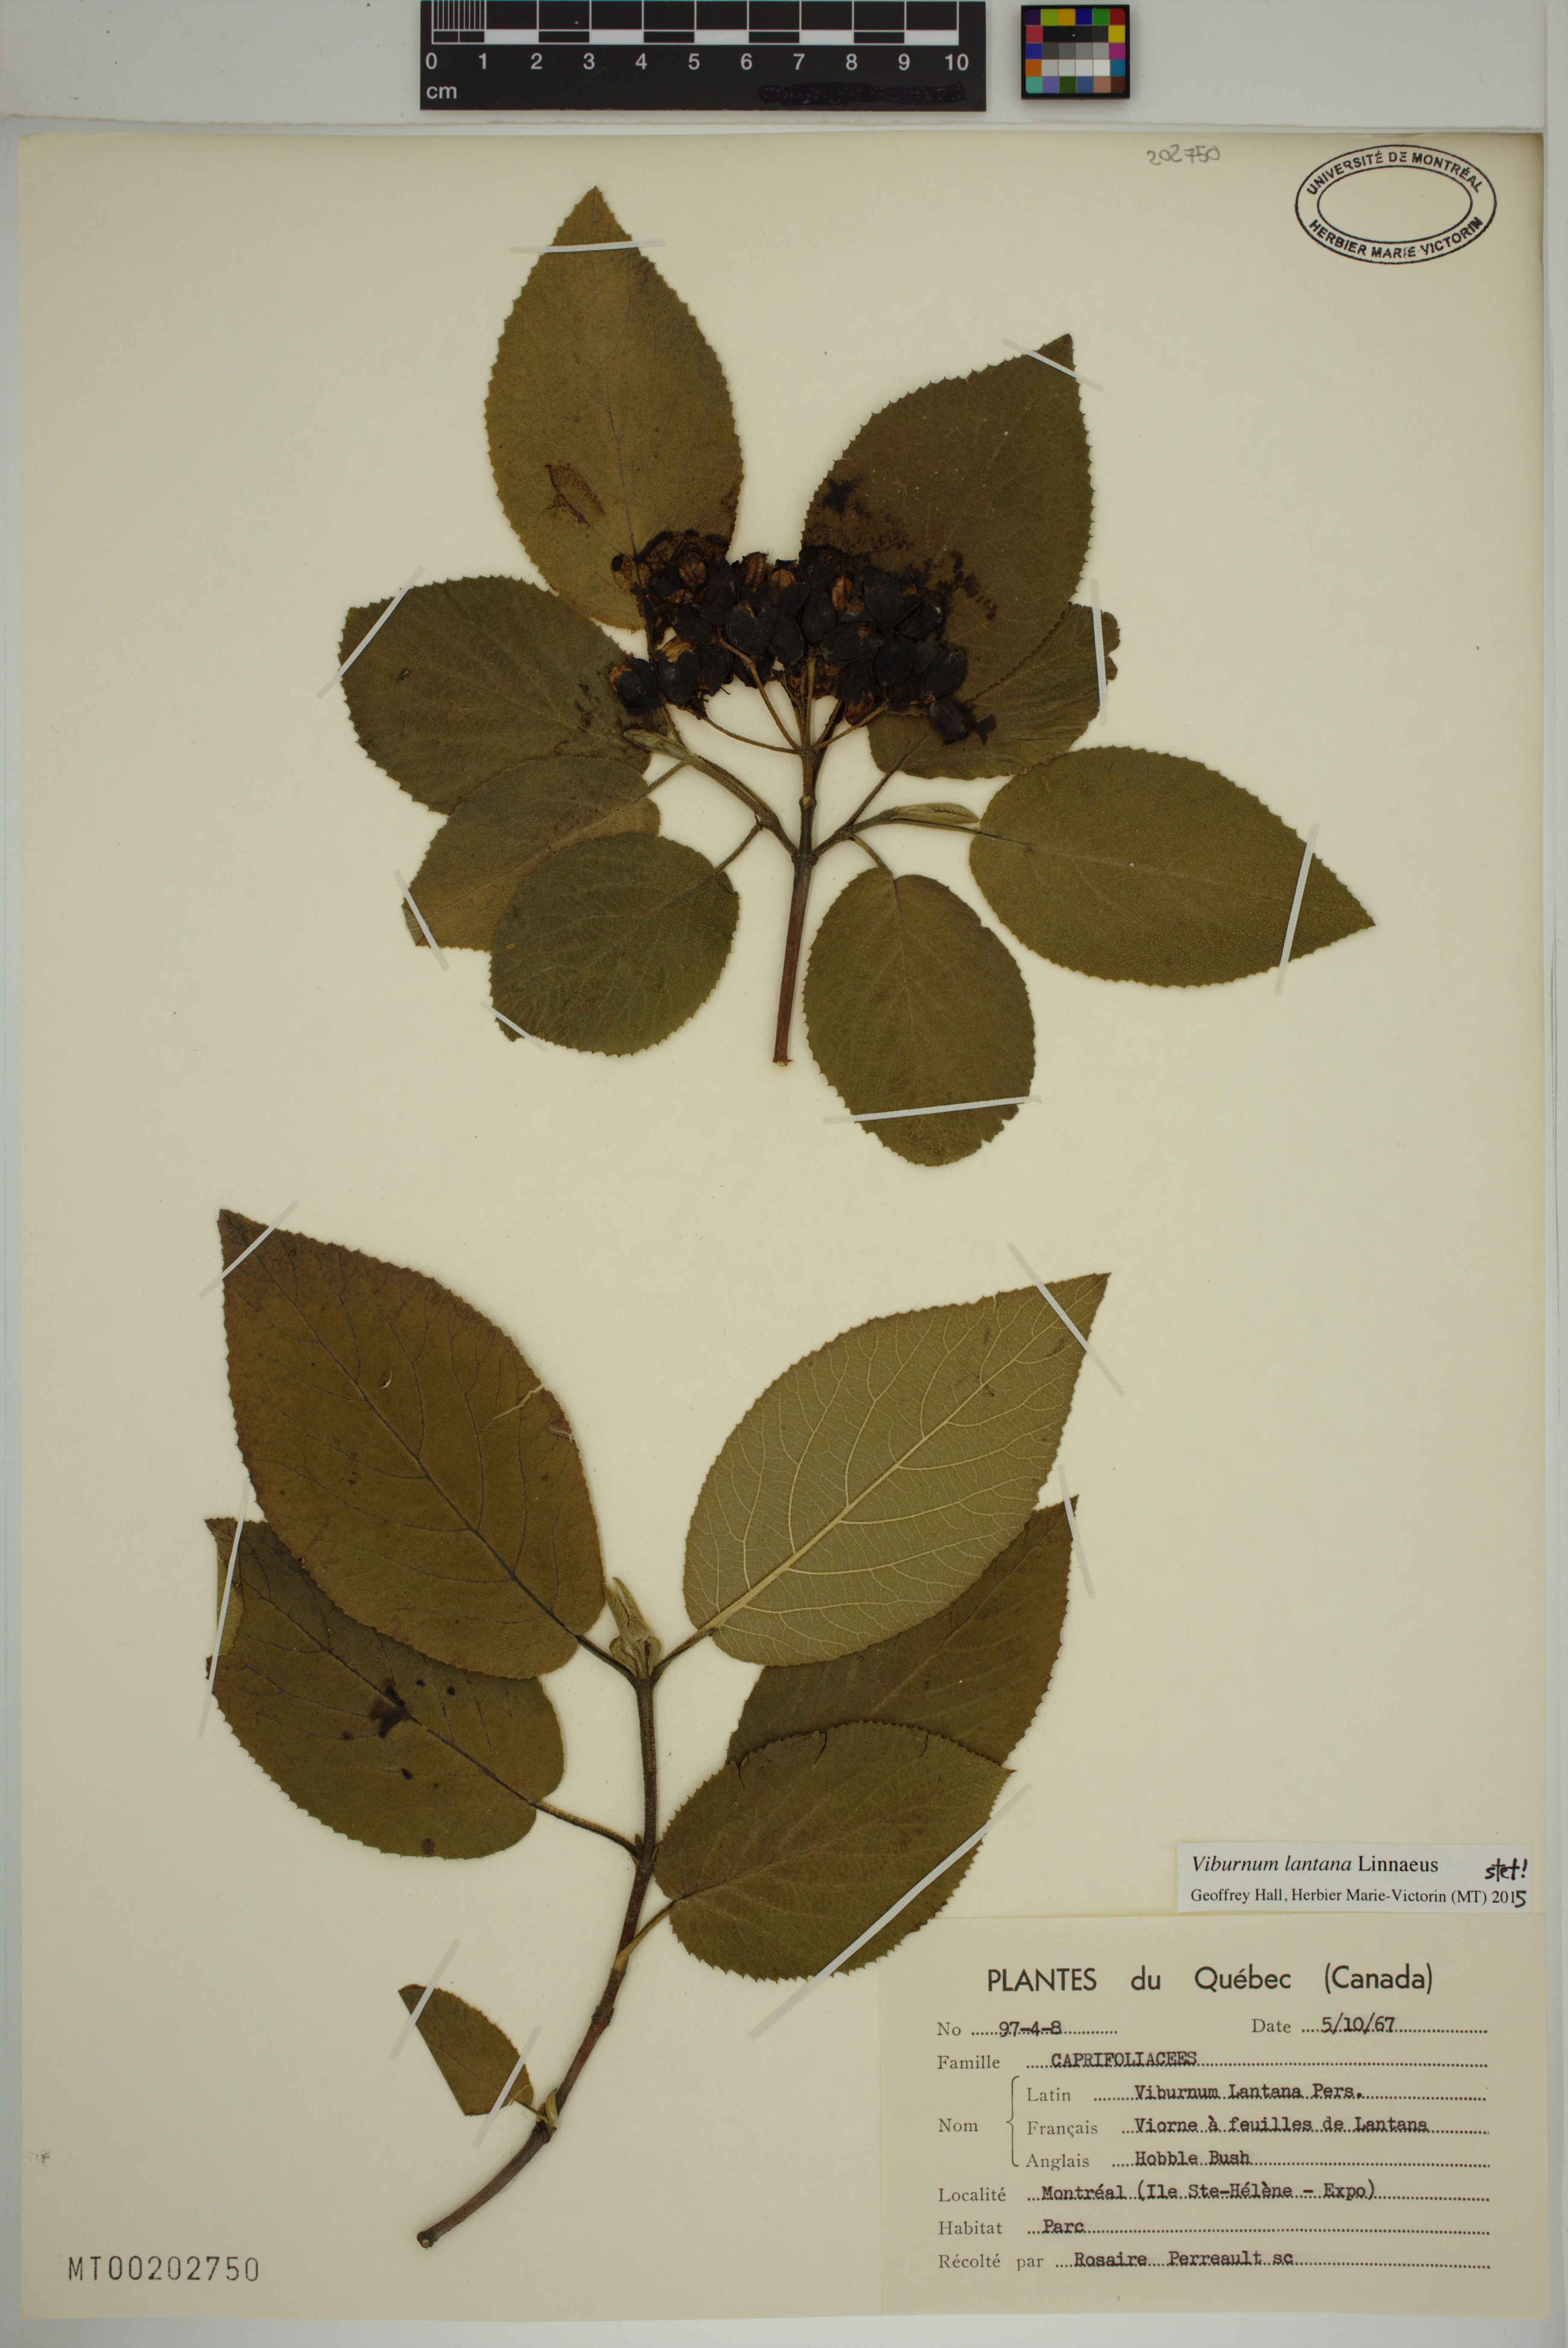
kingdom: Plantae
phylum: Tracheophyta
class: Magnoliopsida
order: Dipsacales
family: Viburnaceae
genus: Viburnum
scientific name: Viburnum lantana
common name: Wayfaring tree
